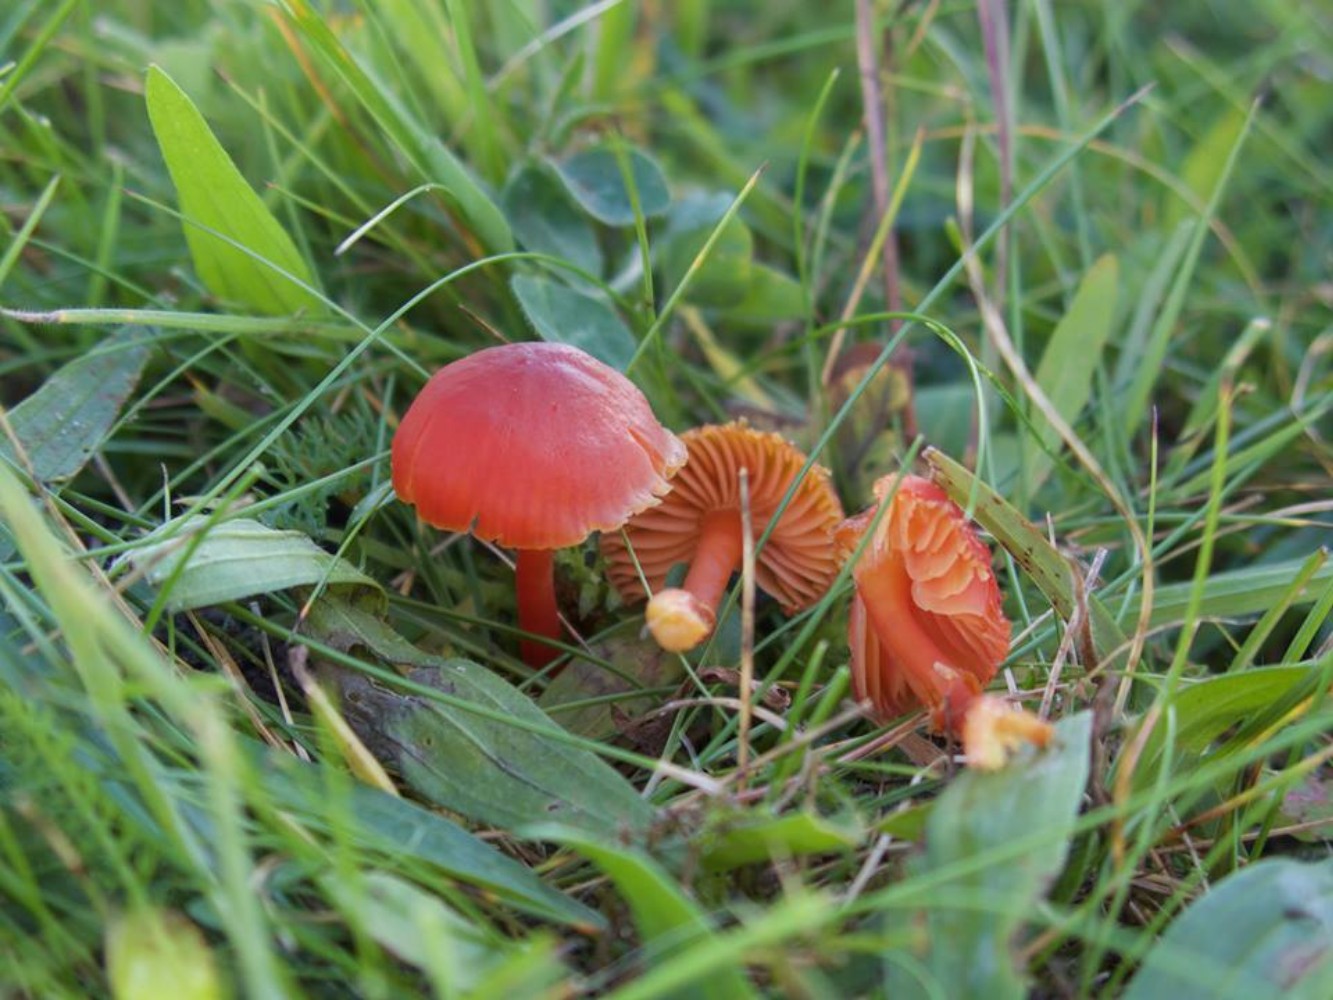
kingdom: Fungi
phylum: Basidiomycota
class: Agaricomycetes
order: Agaricales
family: Hygrophoraceae
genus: Hygrocybe
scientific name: Hygrocybe phaeococcinea
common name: sortdugget vokshat
